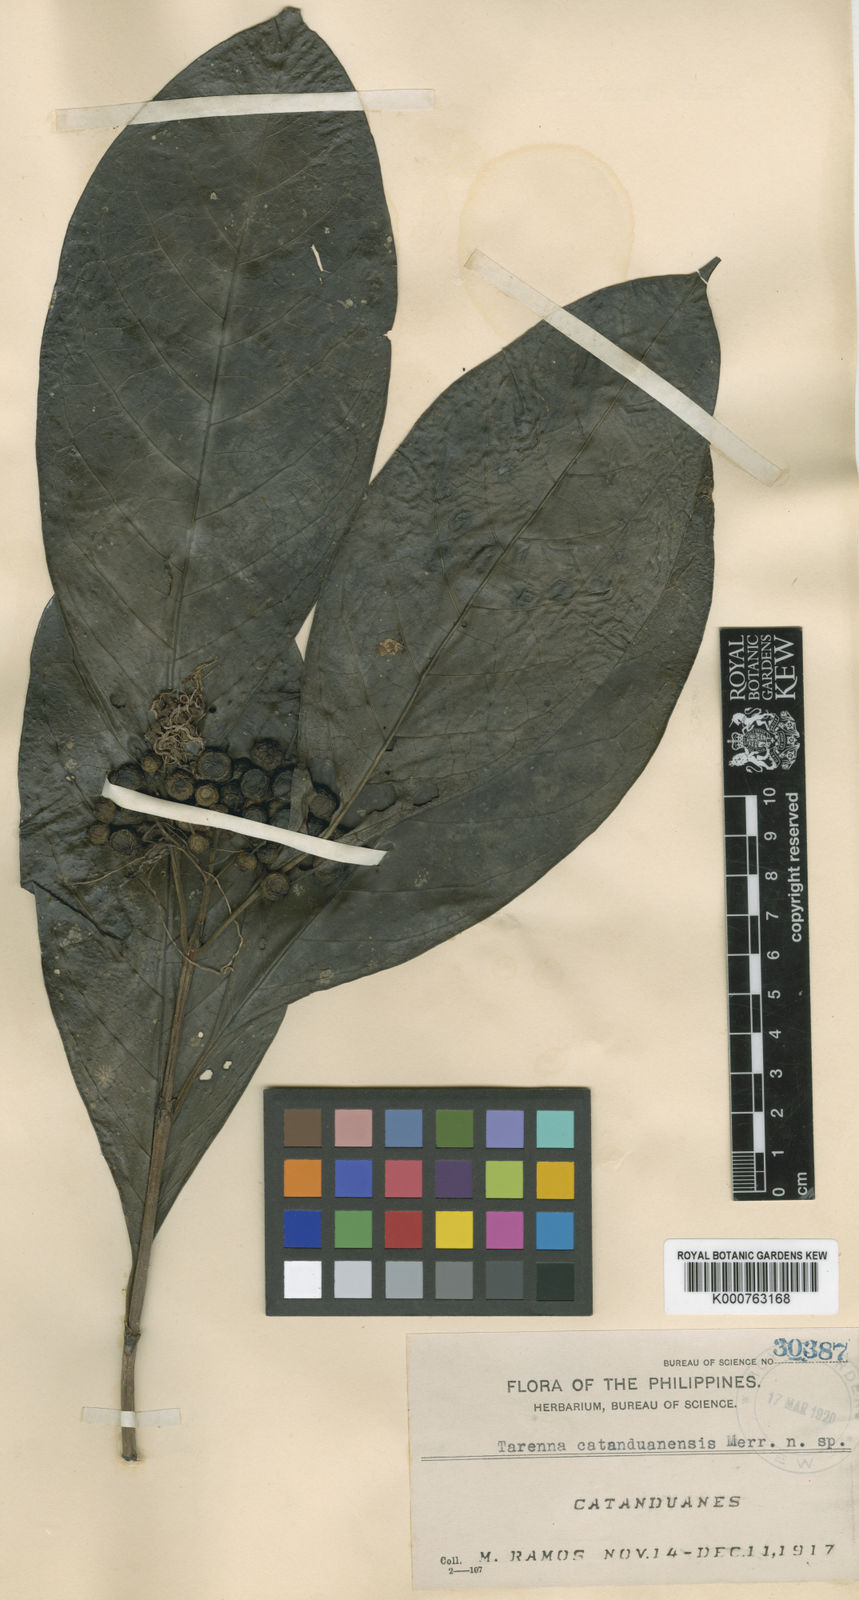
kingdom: Plantae
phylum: Tracheophyta
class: Magnoliopsida
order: Gentianales
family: Rubiaceae
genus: Tarenna
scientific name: Tarenna catanduanensis
